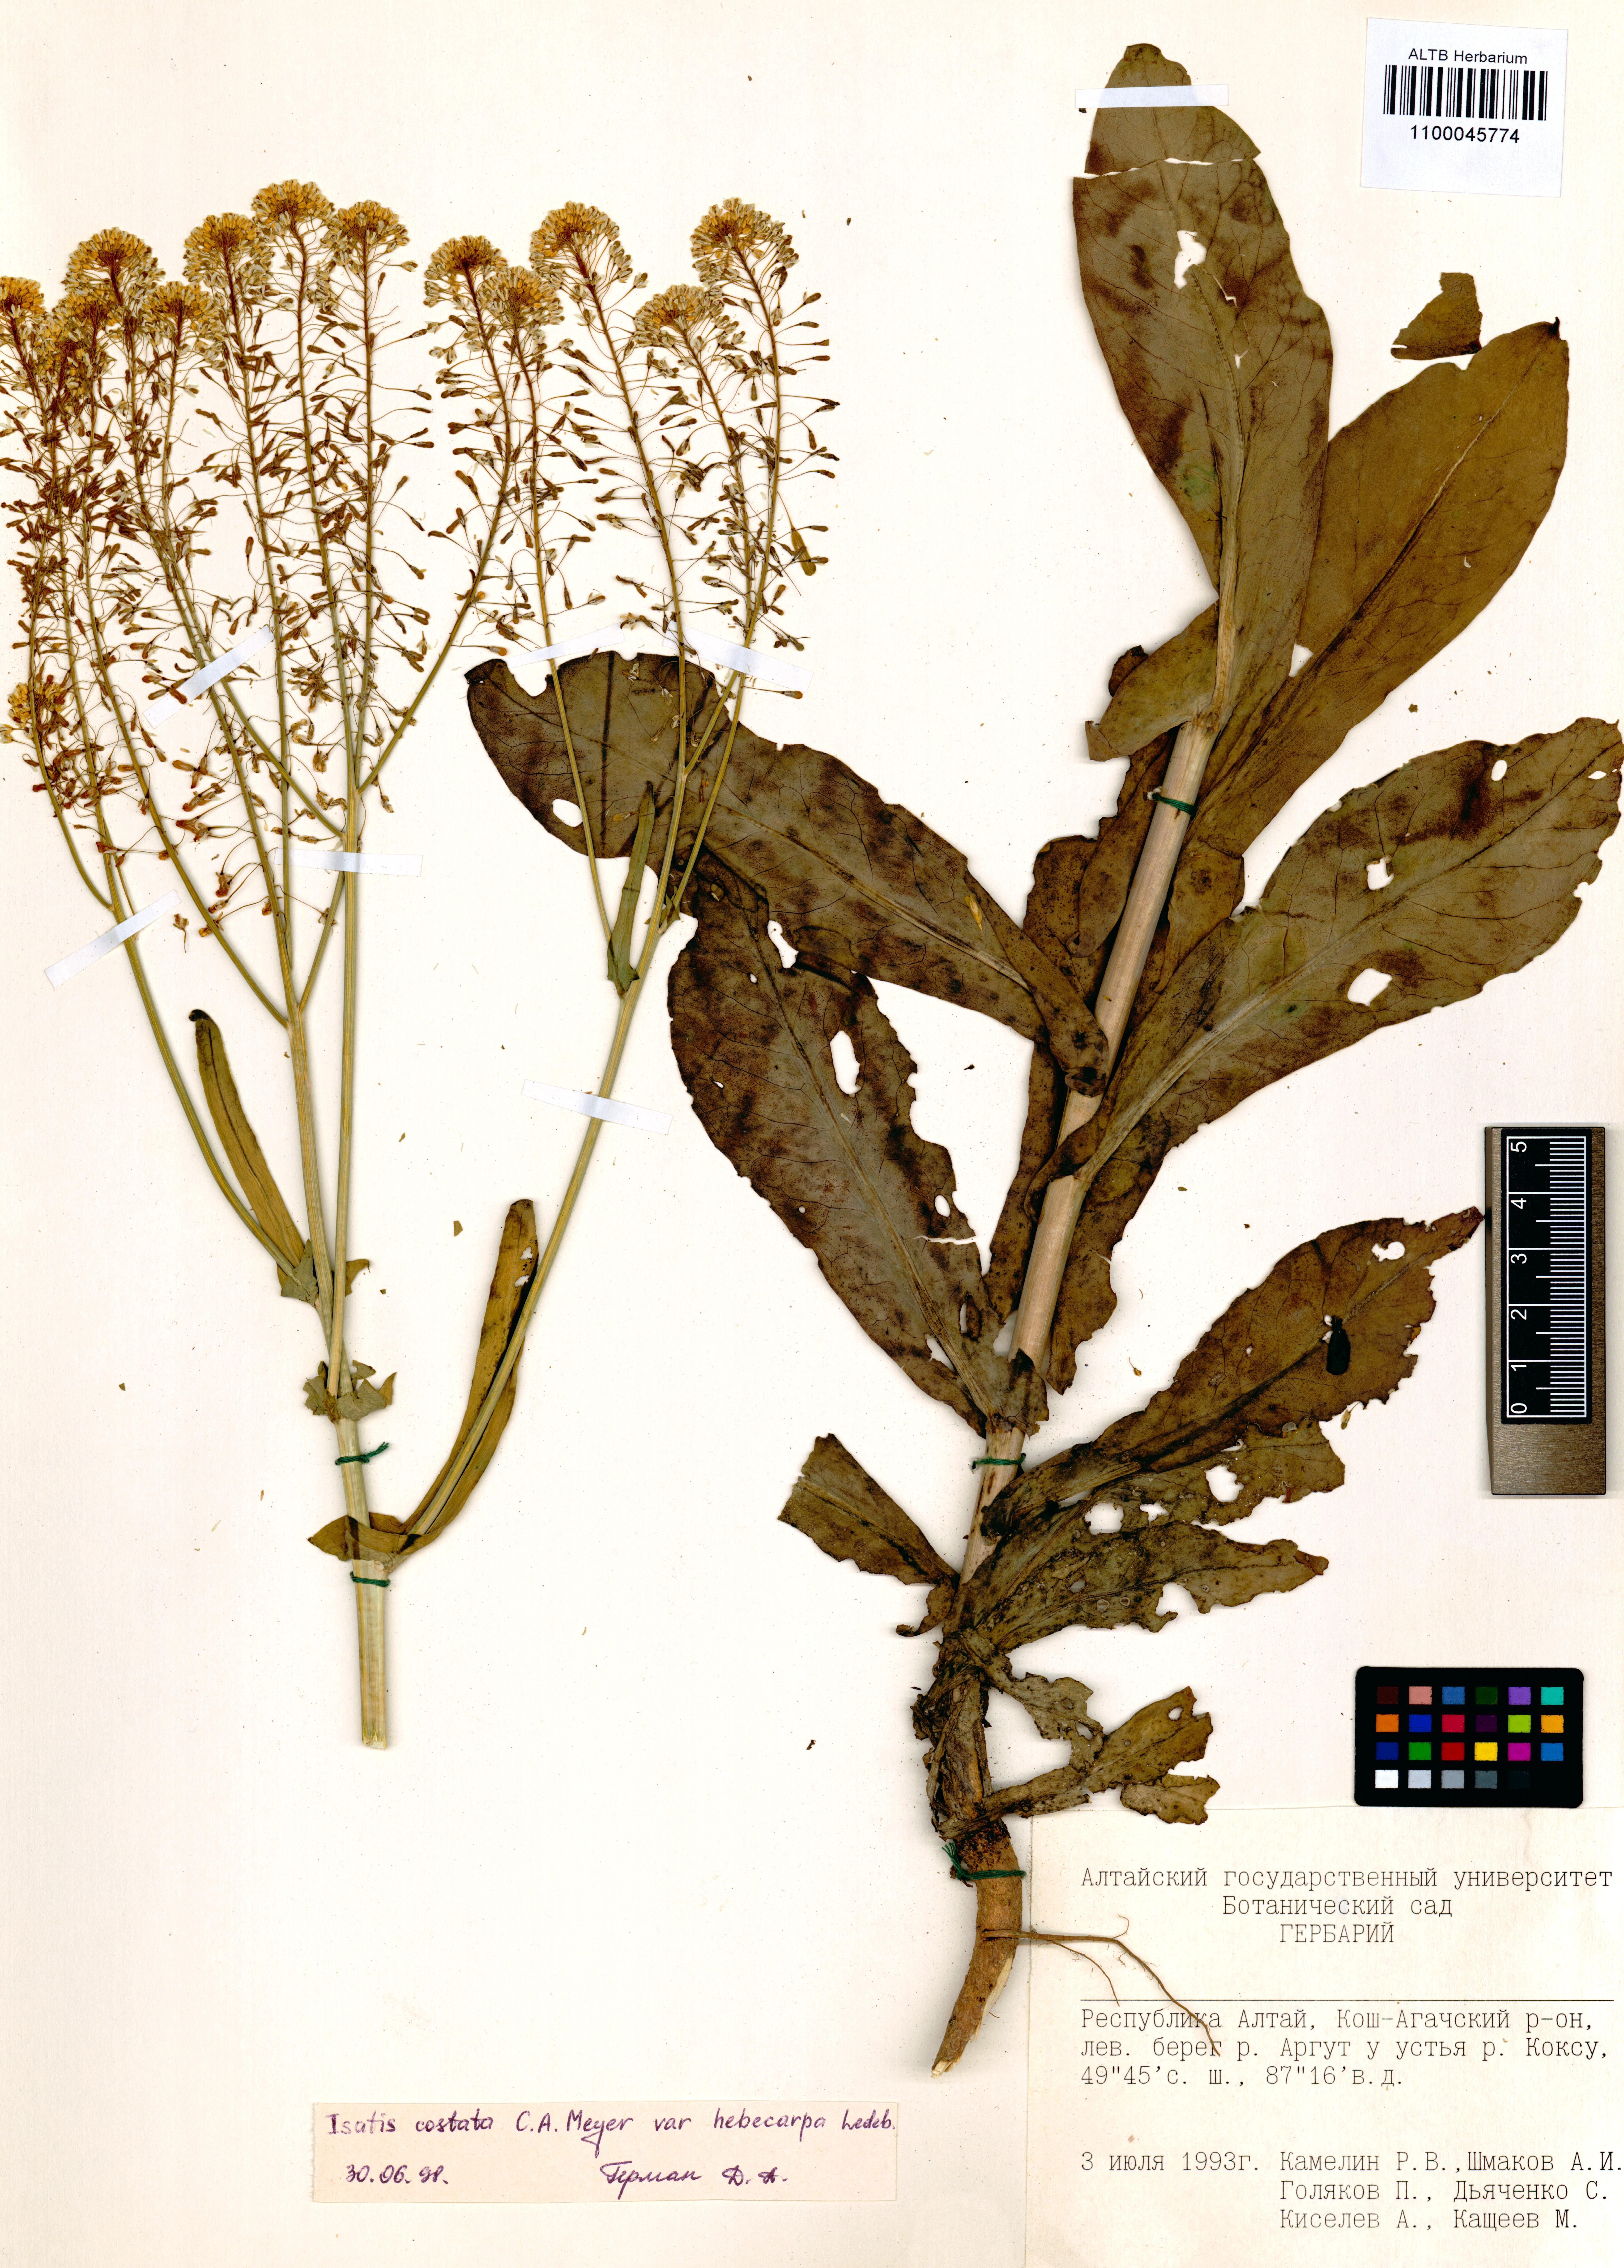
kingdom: Plantae
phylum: Tracheophyta
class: Magnoliopsida
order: Brassicales
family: Brassicaceae
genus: Isatis
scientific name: Isatis costata
